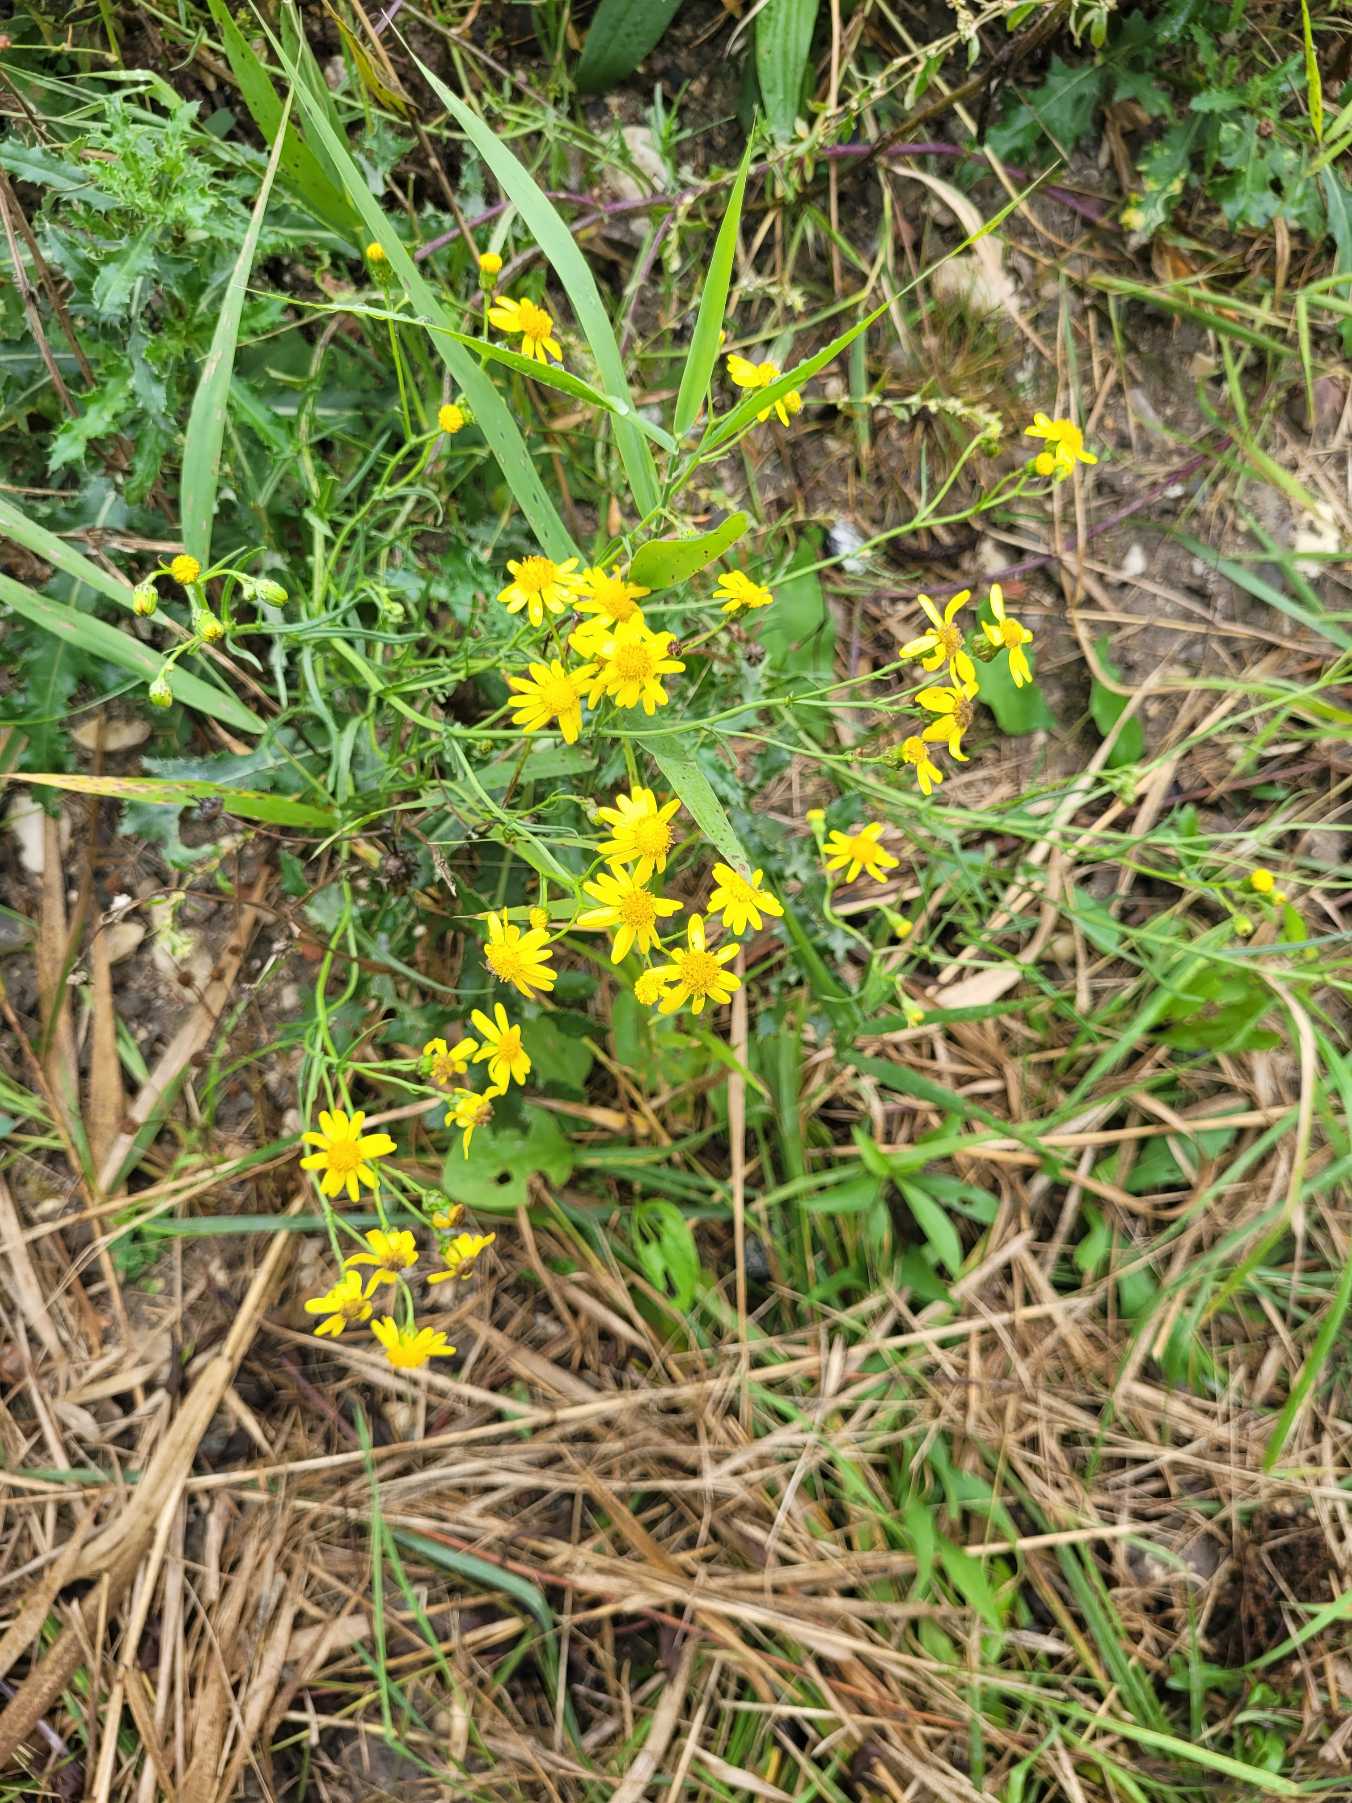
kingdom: Plantae
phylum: Tracheophyta
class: Magnoliopsida
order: Asterales
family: Asteraceae
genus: Senecio
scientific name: Senecio inaequidens
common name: Smalbladet brandbæger
